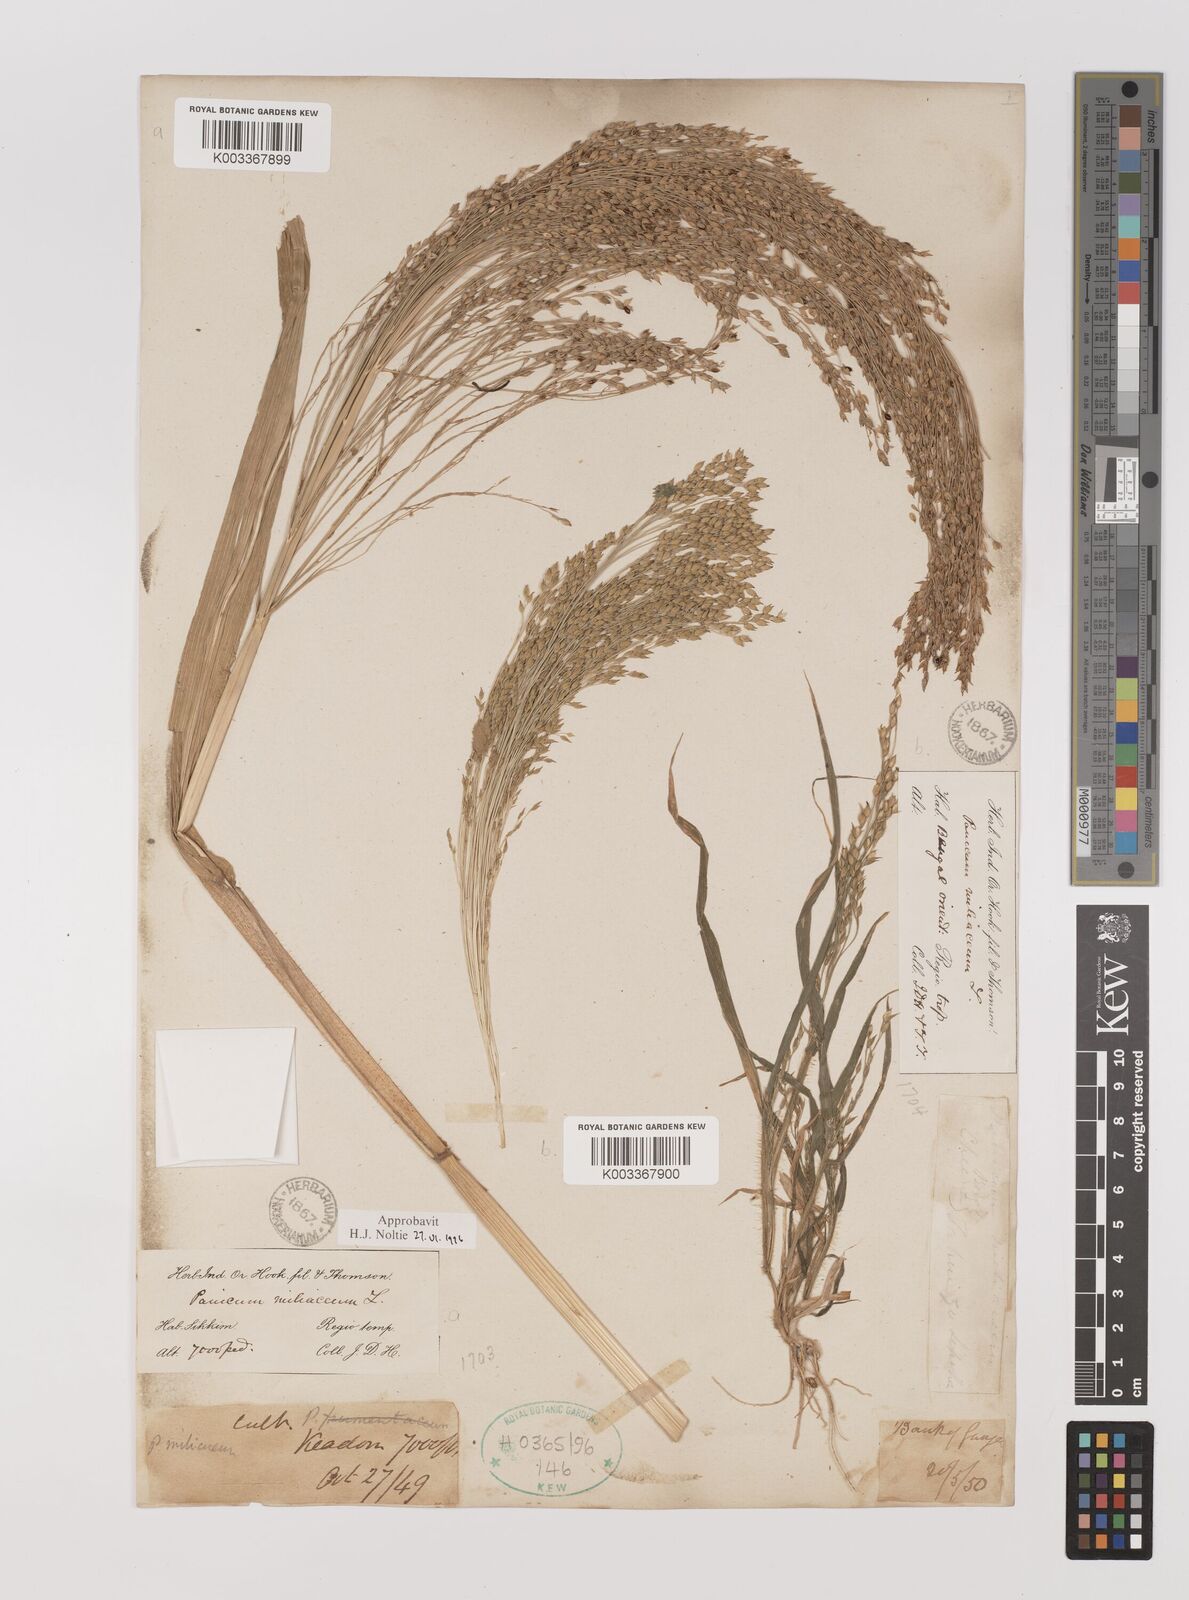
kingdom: Plantae
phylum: Tracheophyta
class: Liliopsida
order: Poales
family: Poaceae
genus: Panicum
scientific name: Panicum miliaceum
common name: Common millet
